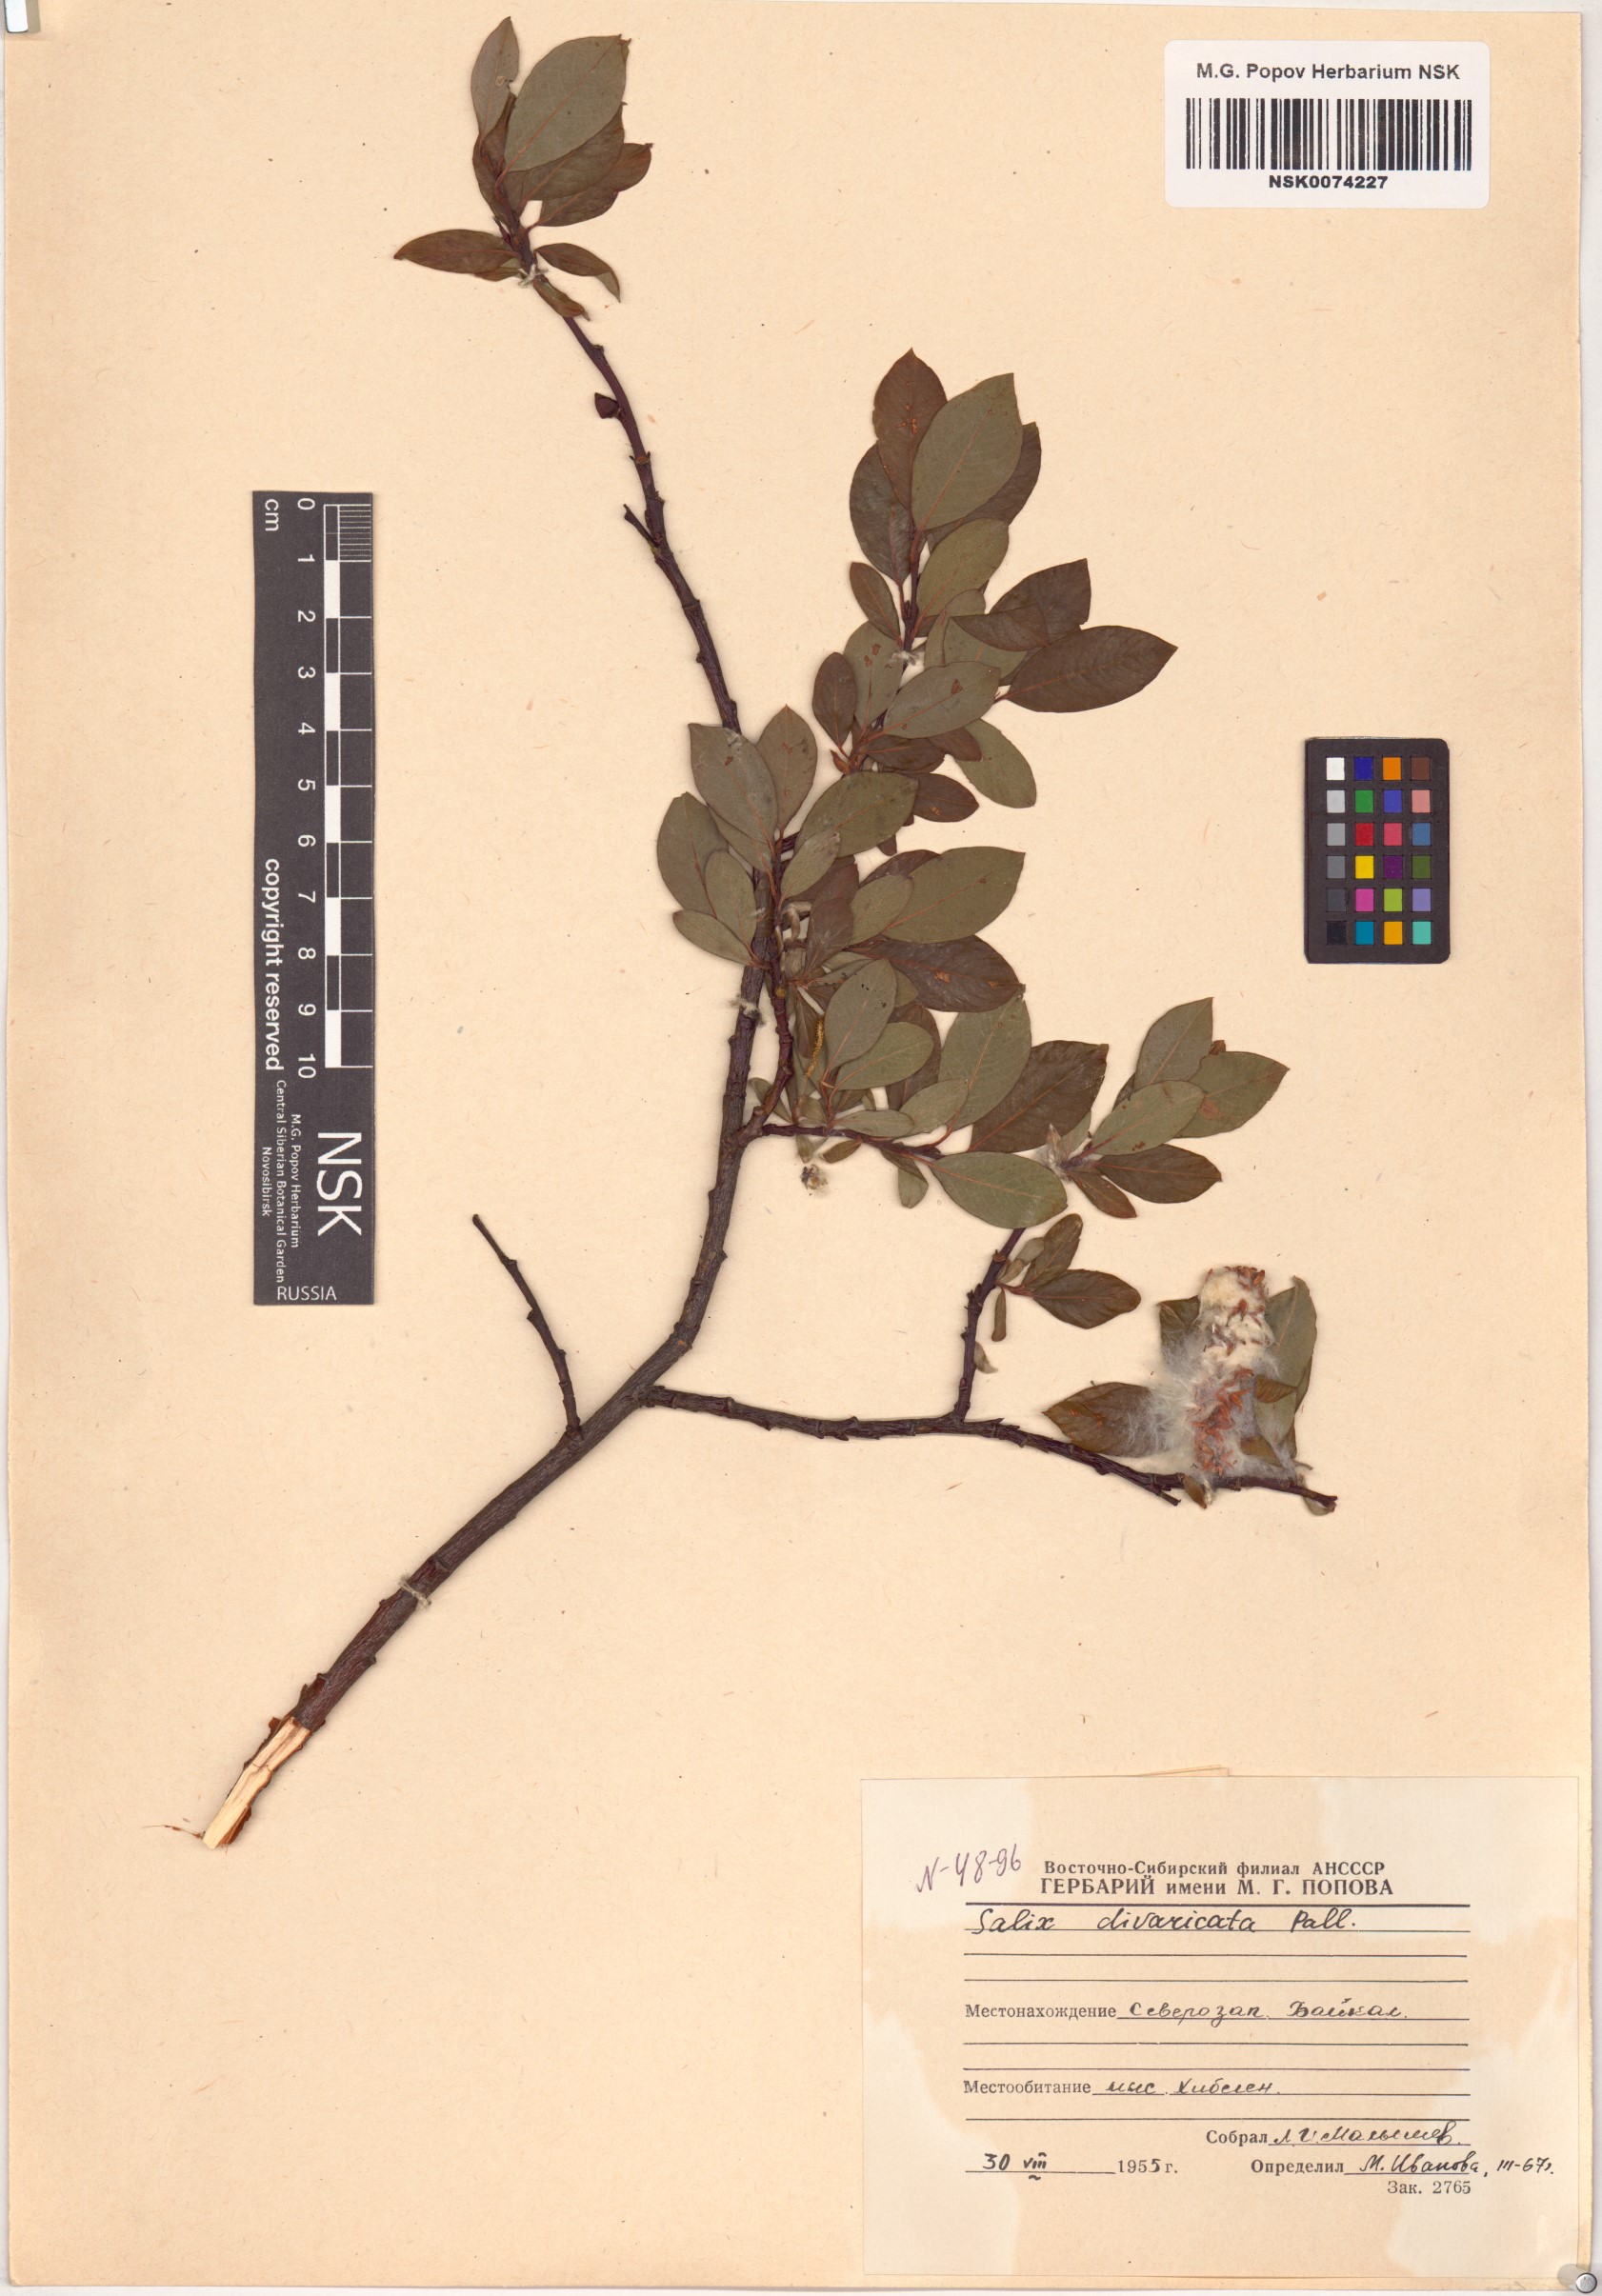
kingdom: Plantae
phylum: Tracheophyta
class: Magnoliopsida
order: Malpighiales
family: Salicaceae
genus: Salix
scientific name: Salix divaricata
